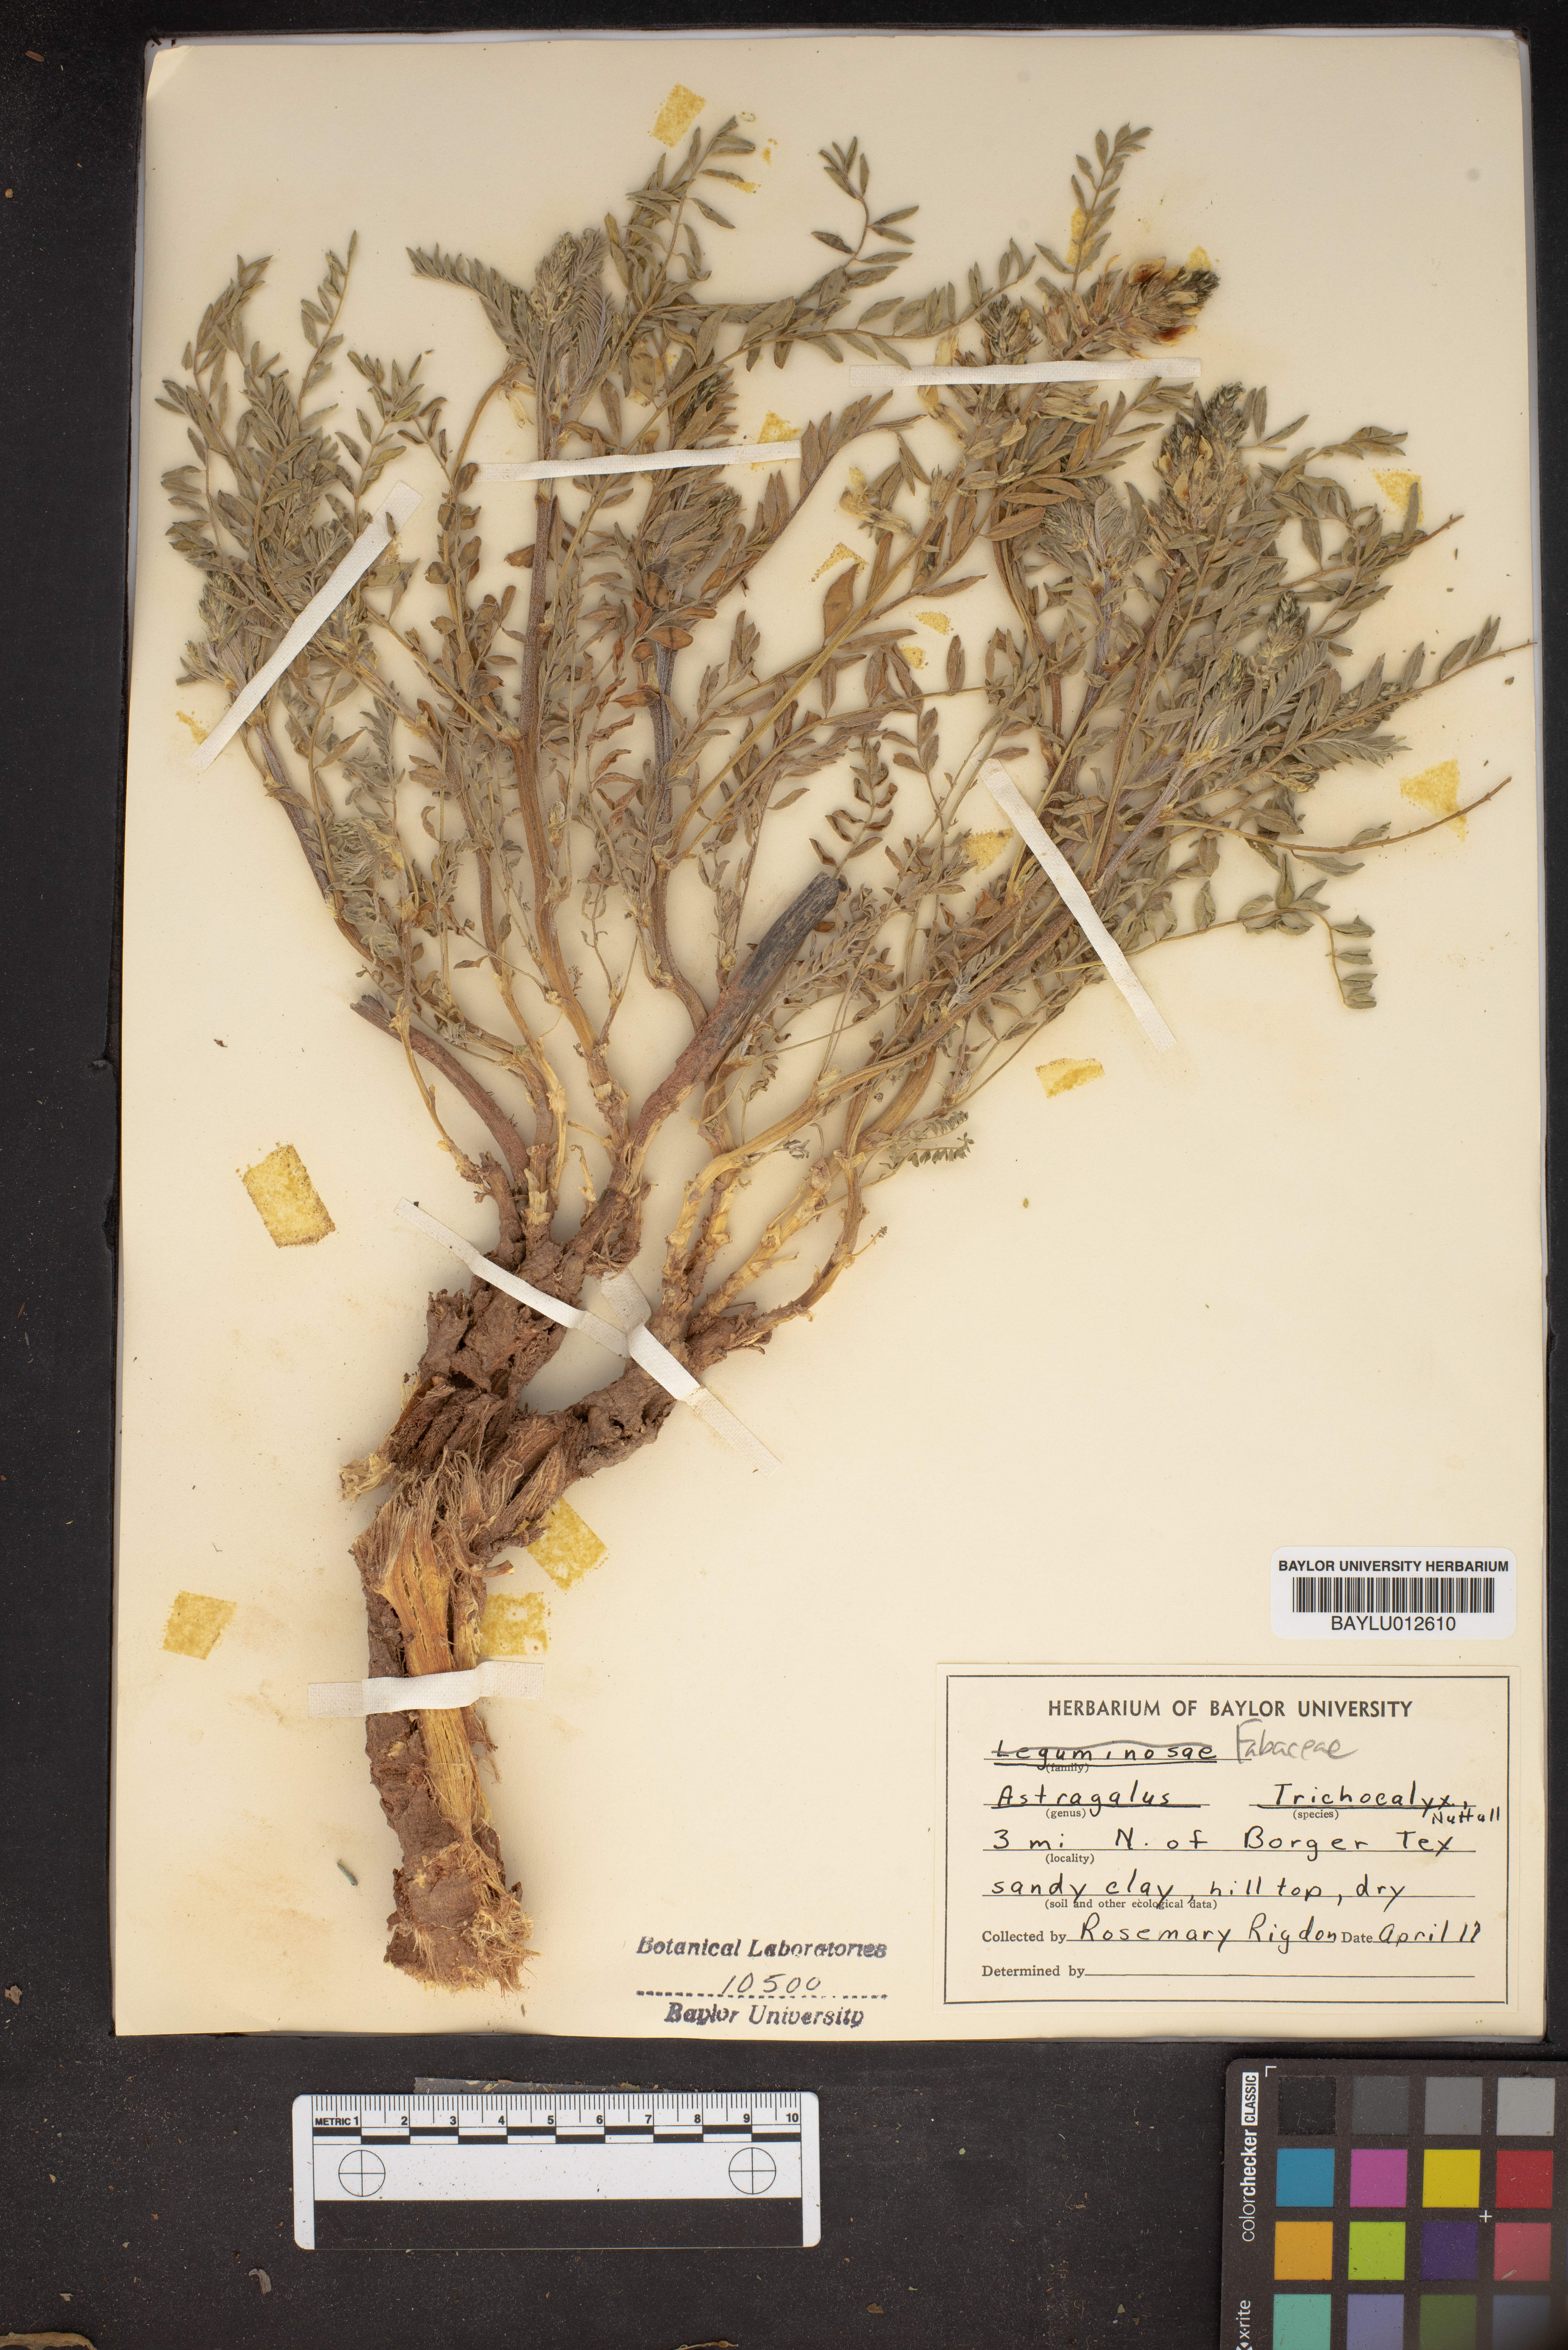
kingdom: Plantae
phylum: Tracheophyta
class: Magnoliopsida
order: Fabales
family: Fabaceae
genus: Astragalus
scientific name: Astragalus petropolitanus
